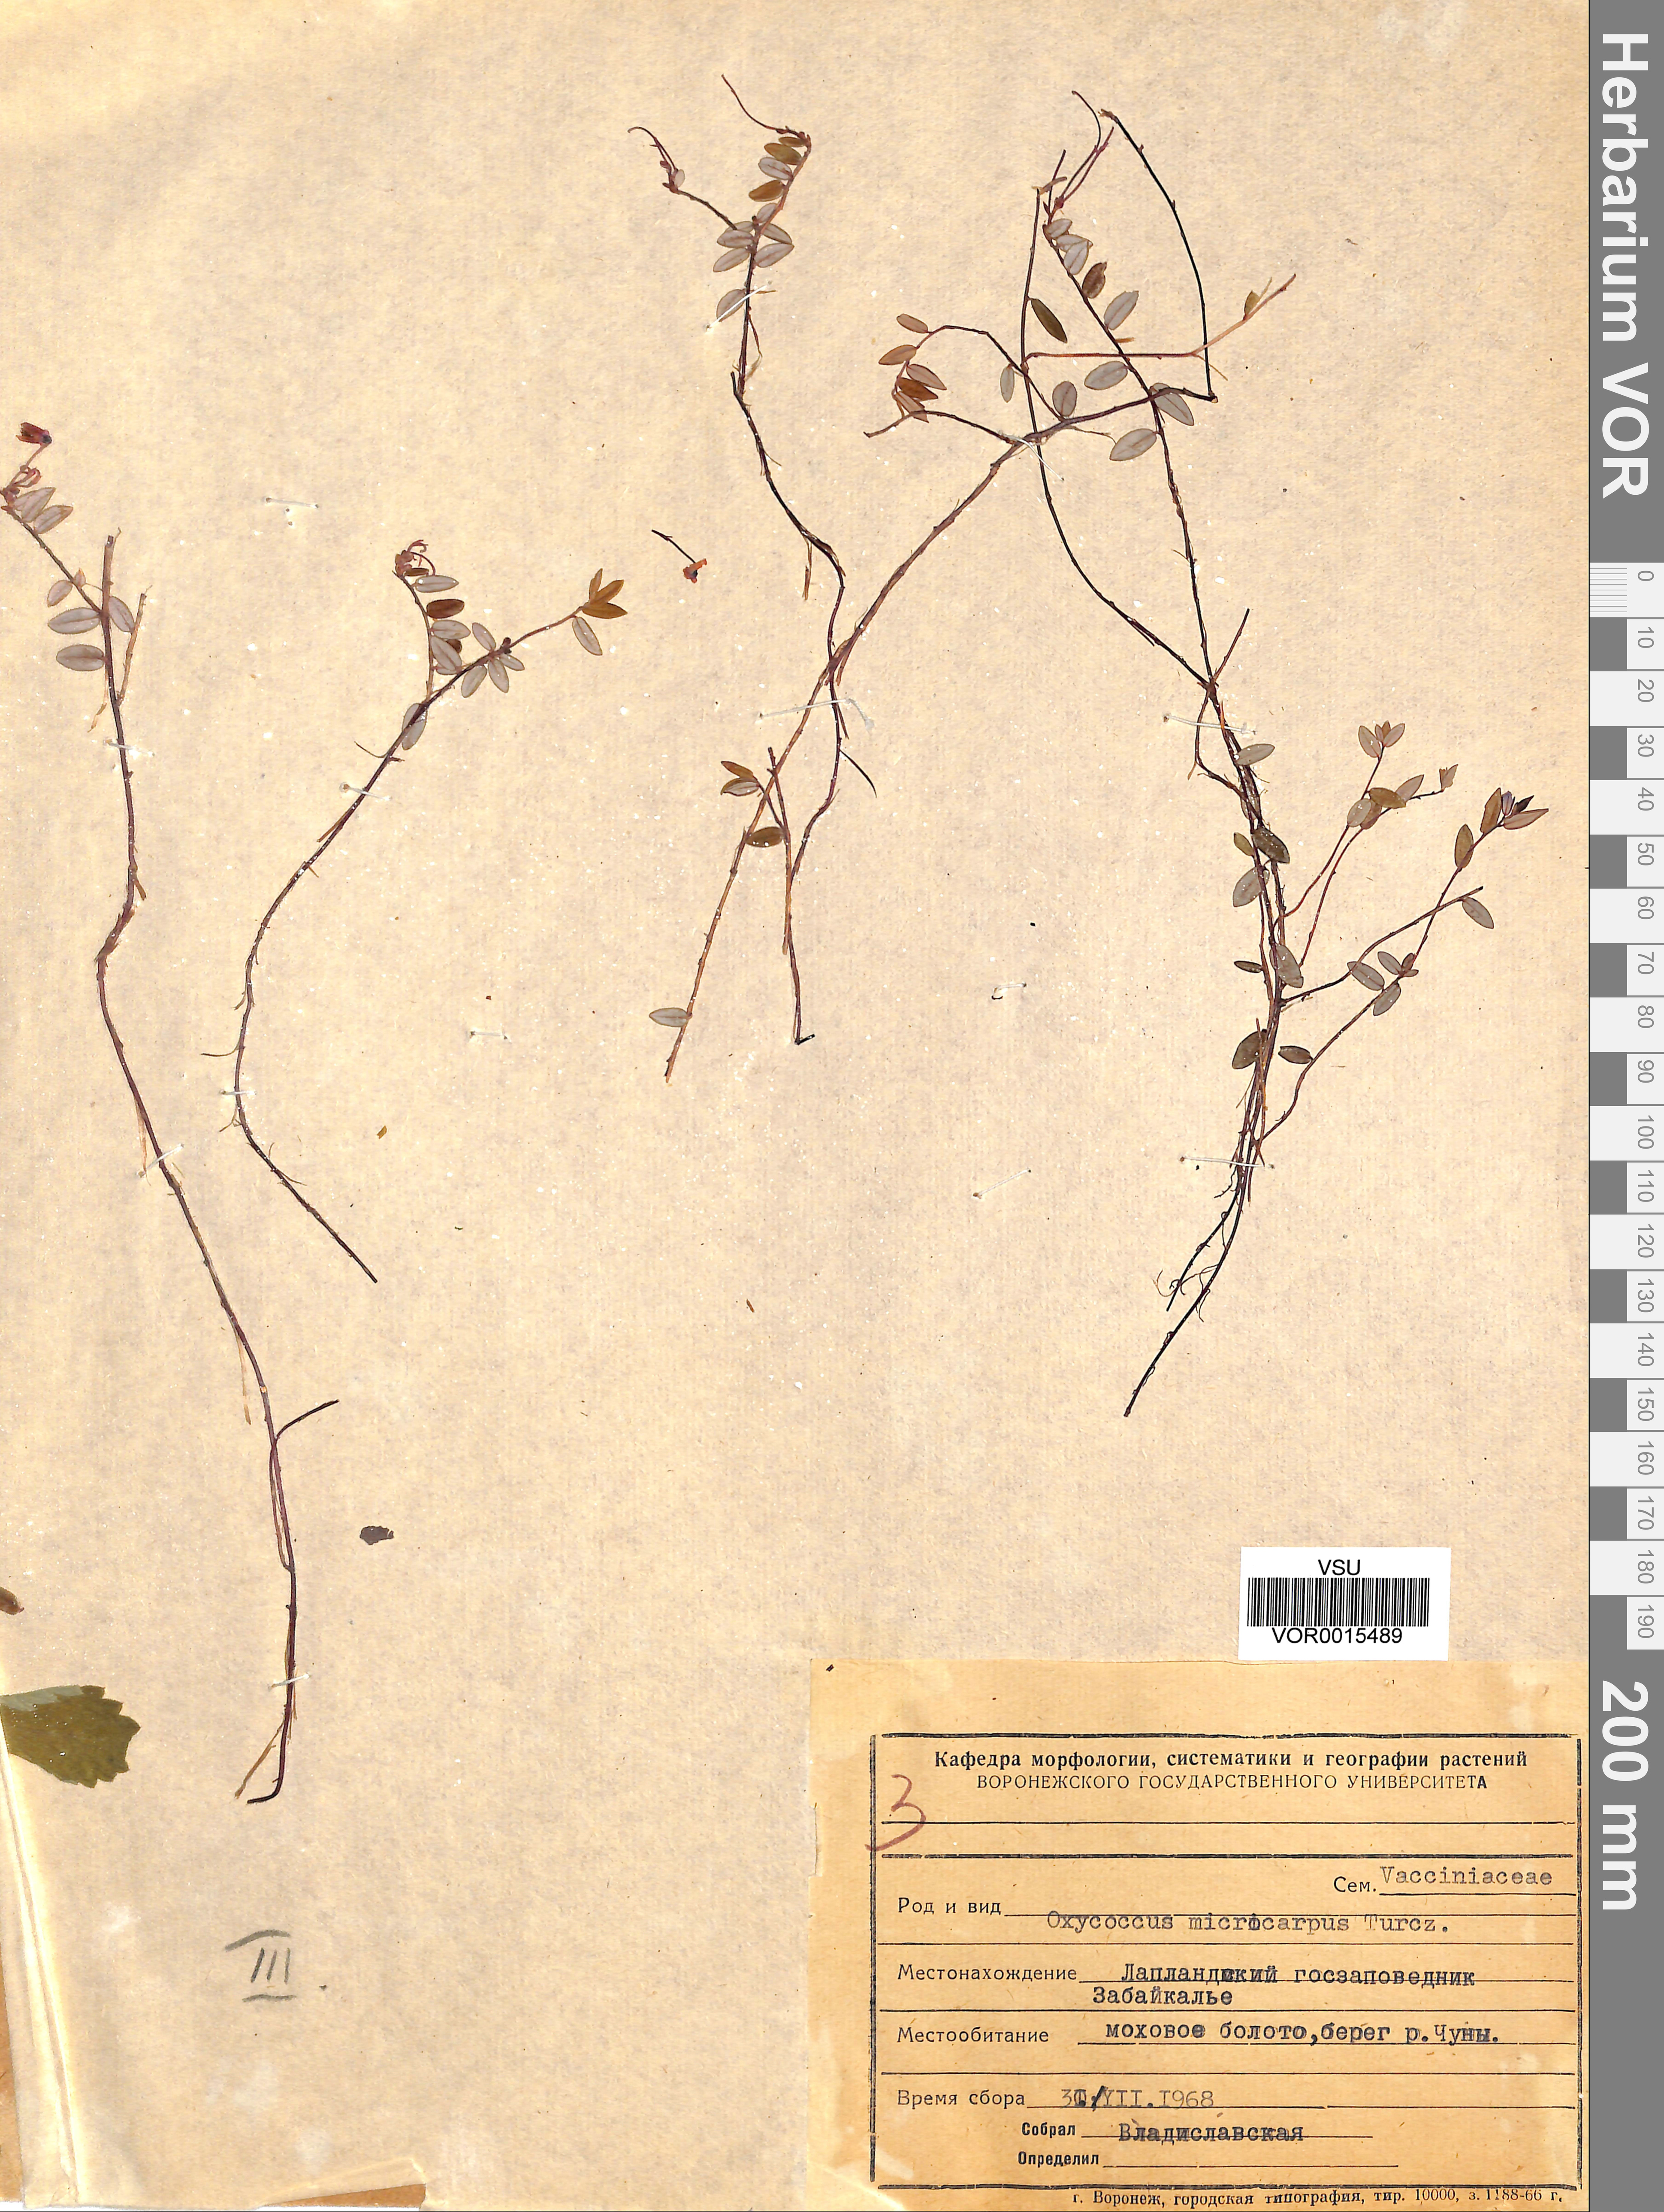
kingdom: Plantae
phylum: Tracheophyta
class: Magnoliopsida
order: Ericales
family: Ericaceae
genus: Vaccinium
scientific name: Vaccinium microcarpum
